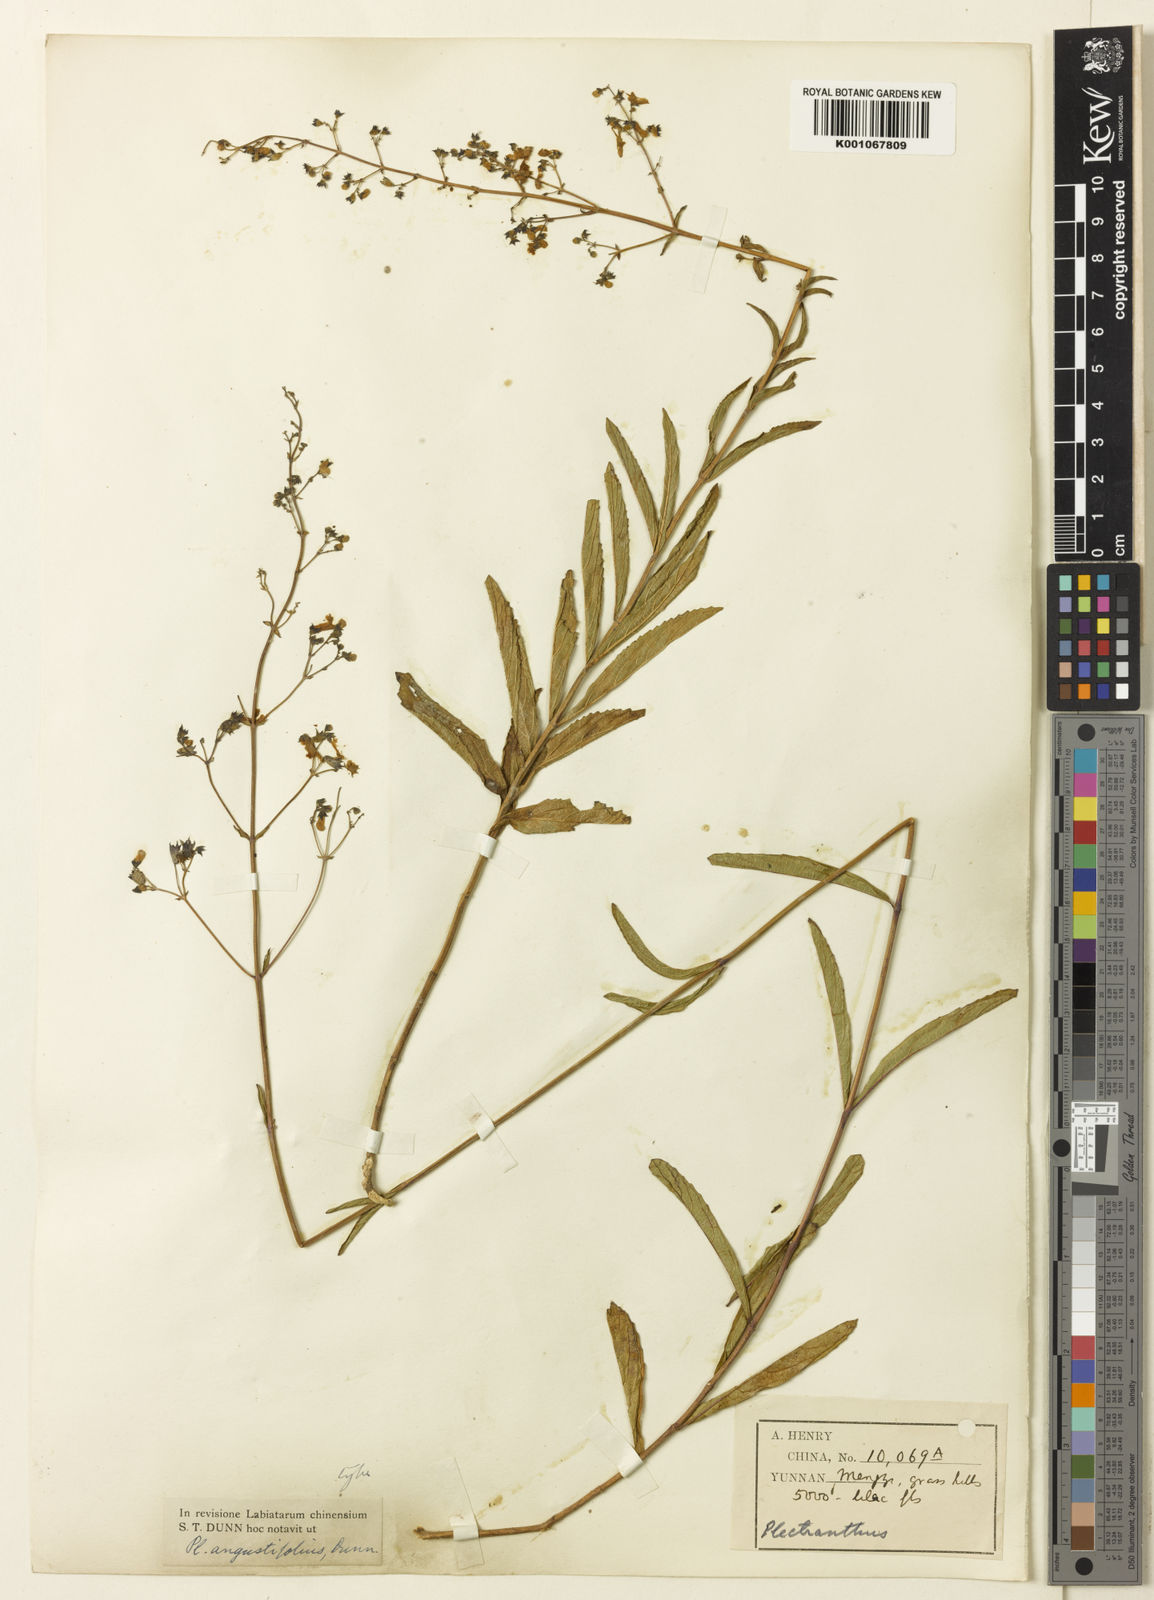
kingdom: Plantae
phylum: Tracheophyta
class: Magnoliopsida
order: Lamiales
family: Lamiaceae
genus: Isodon
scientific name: Isodon
